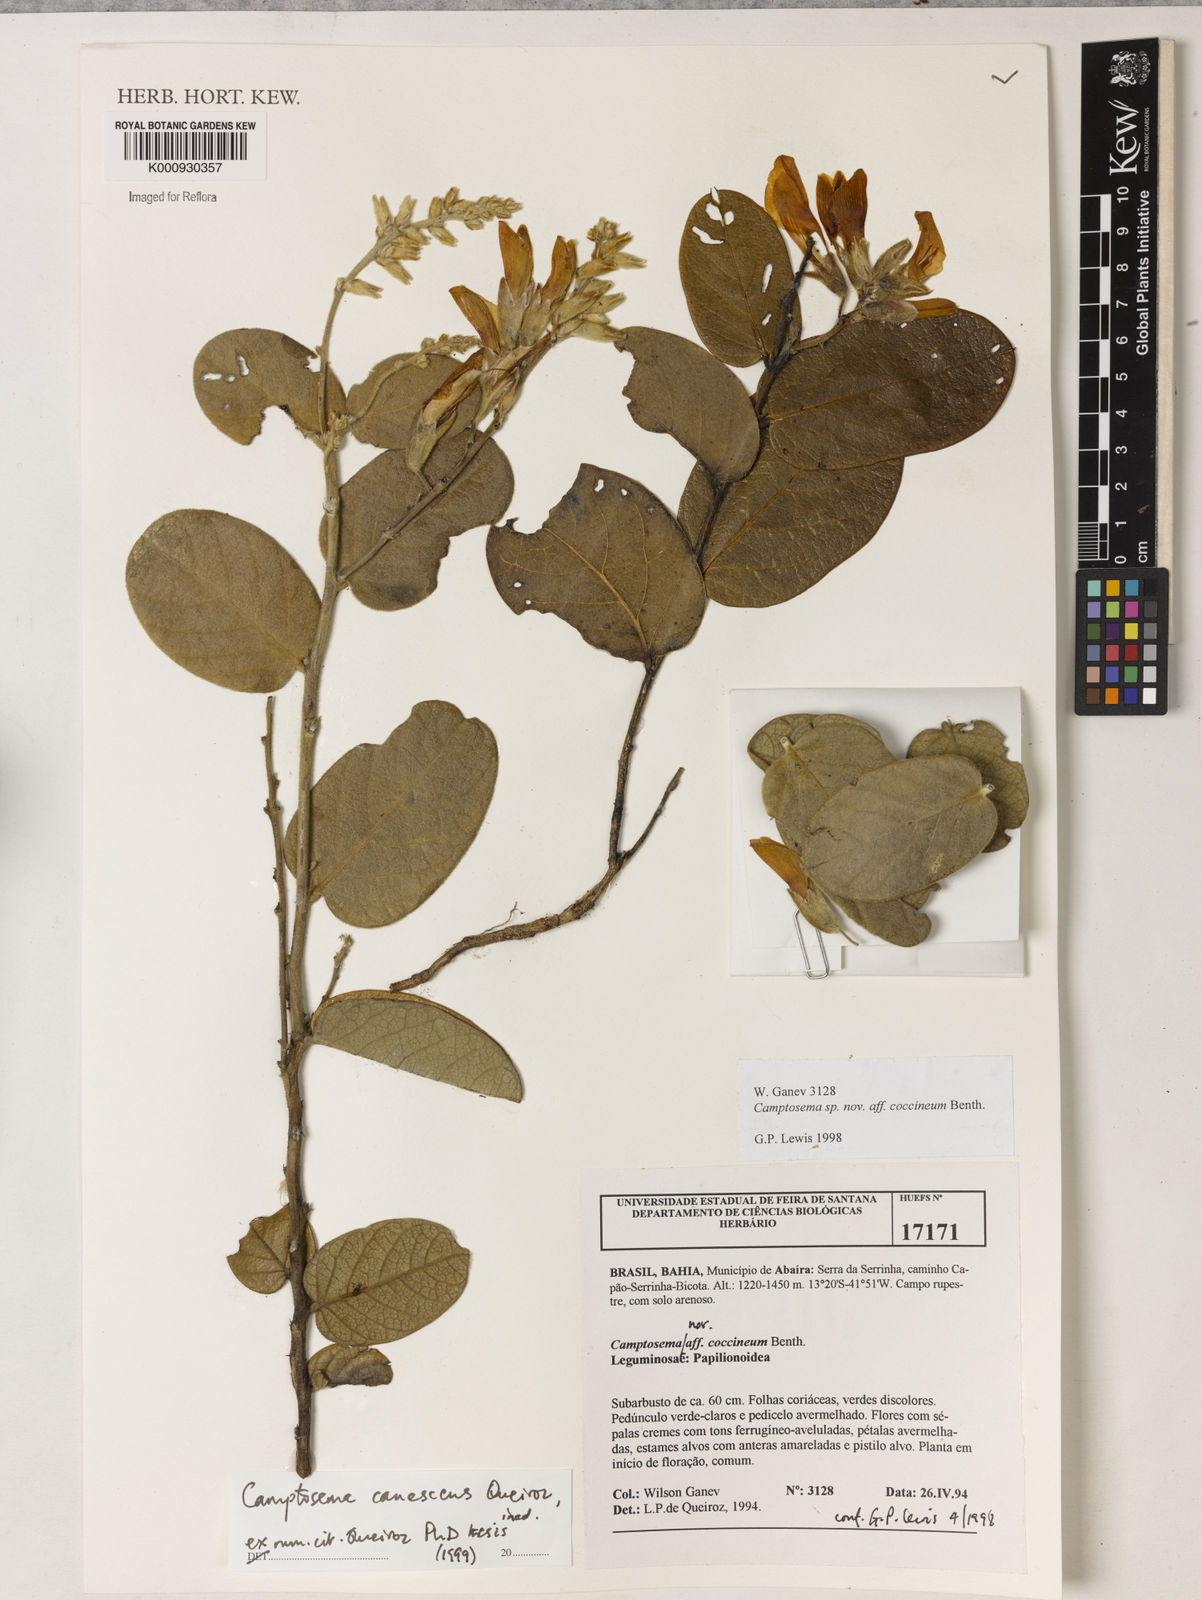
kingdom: Plantae
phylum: Tracheophyta
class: Magnoliopsida
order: Fabales
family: Fabaceae
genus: Camptosema
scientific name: Camptosema
